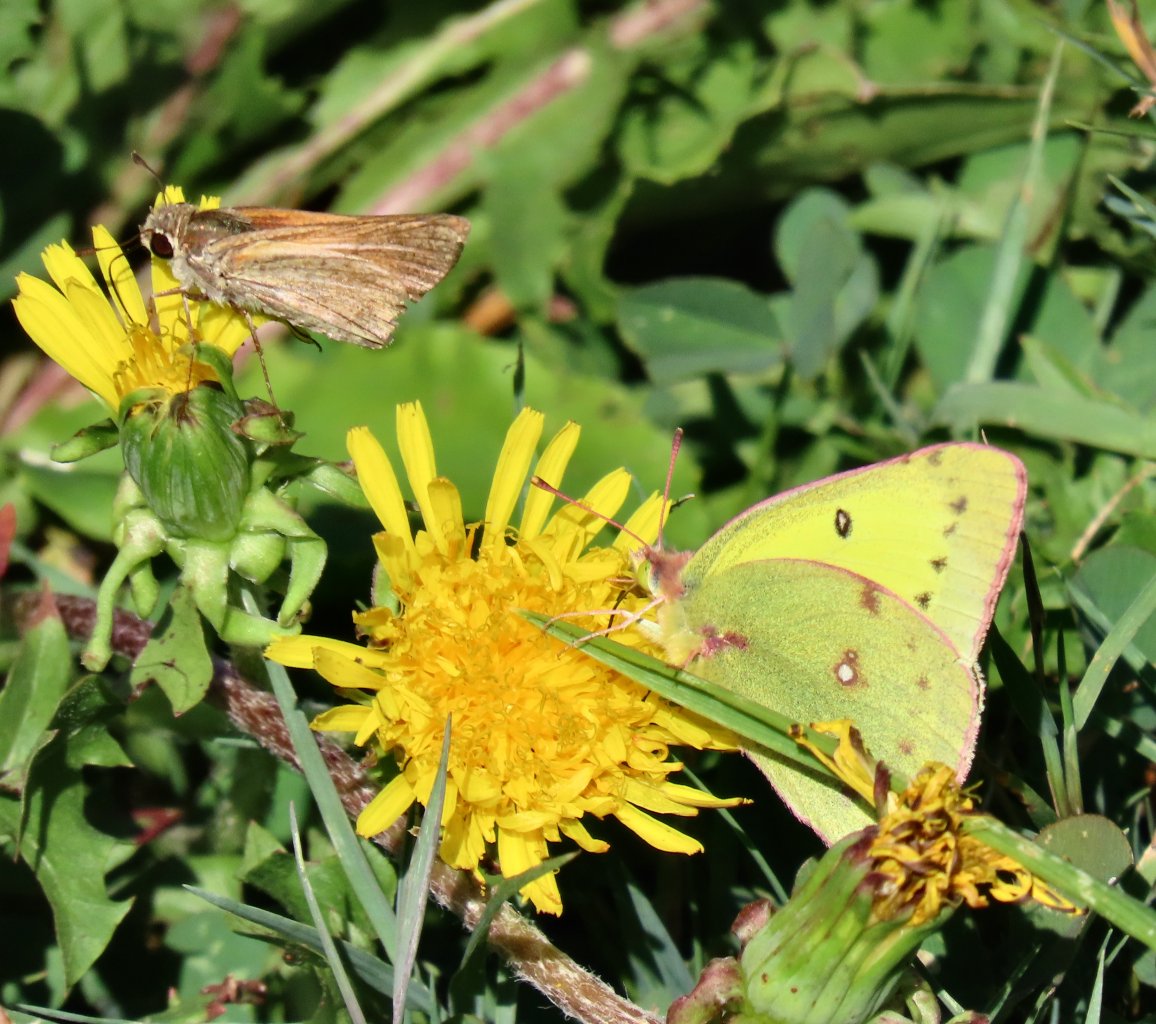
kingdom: Animalia
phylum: Arthropoda
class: Insecta
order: Lepidoptera
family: Hesperiidae
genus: Polites
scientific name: Polites themistocles
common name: Tawny-edged Skipper
